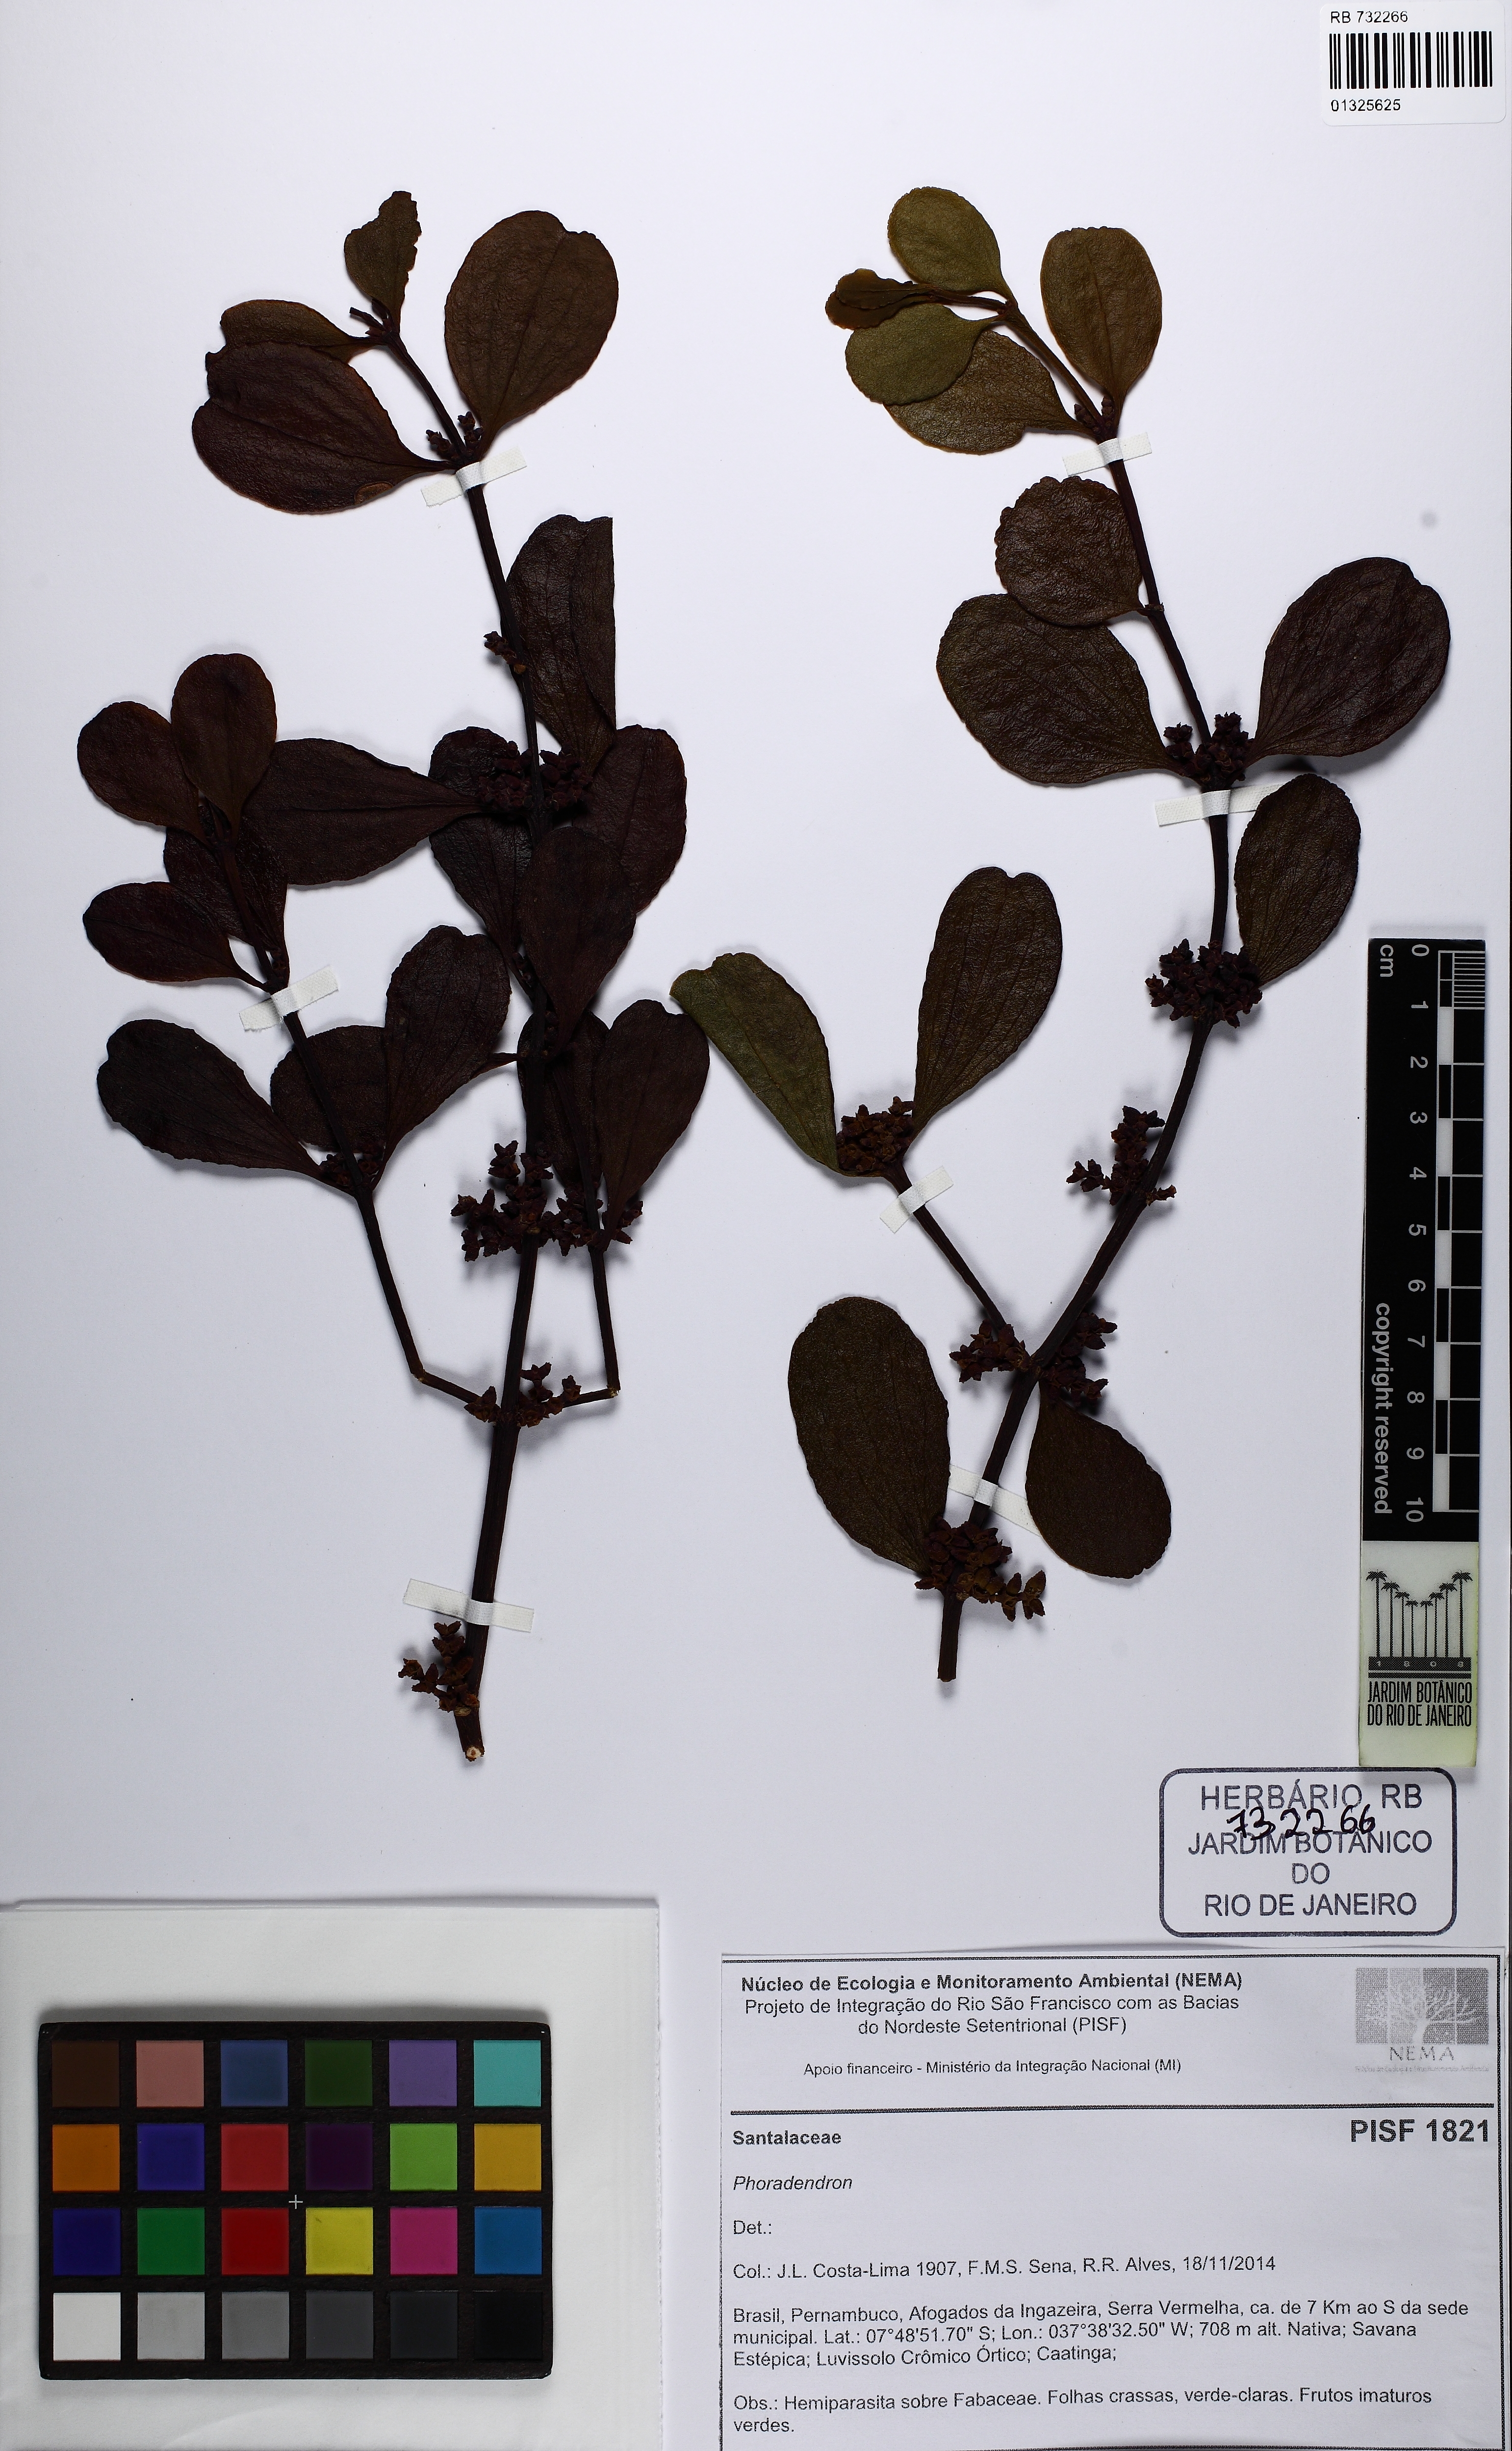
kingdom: Plantae
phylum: Tracheophyta
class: Magnoliopsida
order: Santalales
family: Viscaceae
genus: Phoradendron
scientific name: Phoradendron mucronatum
